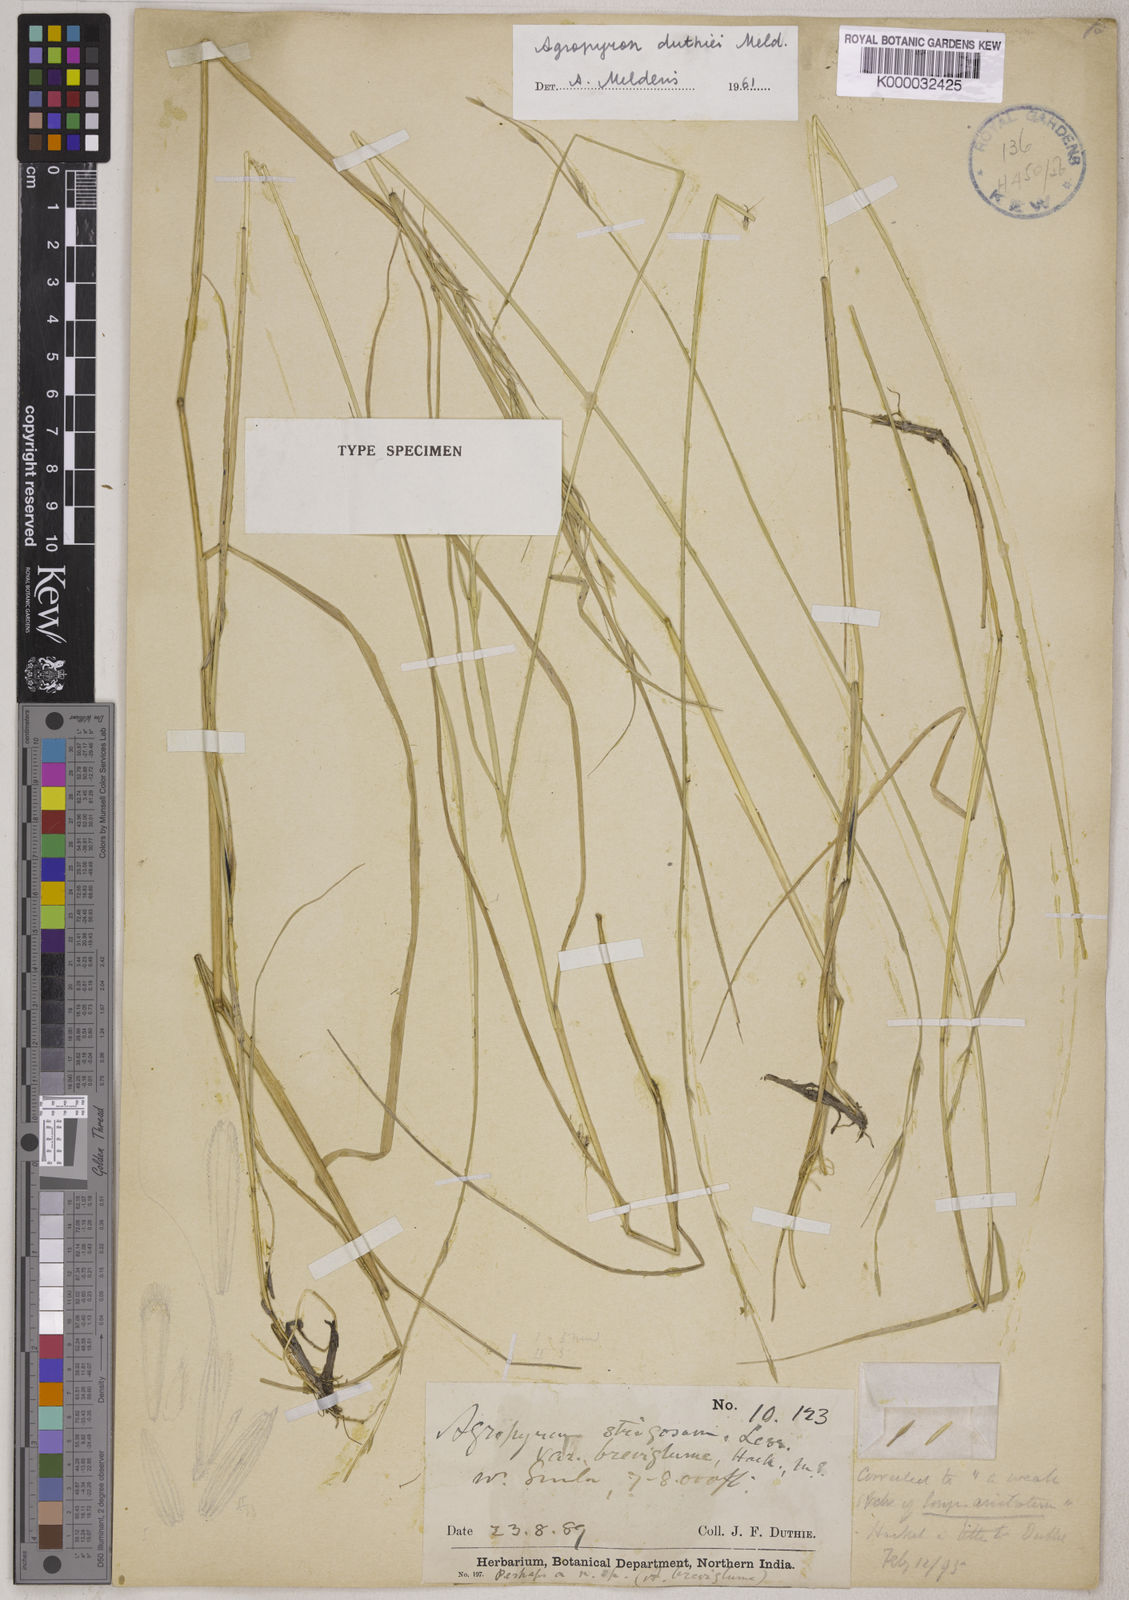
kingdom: Plantae
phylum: Tracheophyta
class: Liliopsida
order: Poales
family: Poaceae
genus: Elymus
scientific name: Elymus duthiei
